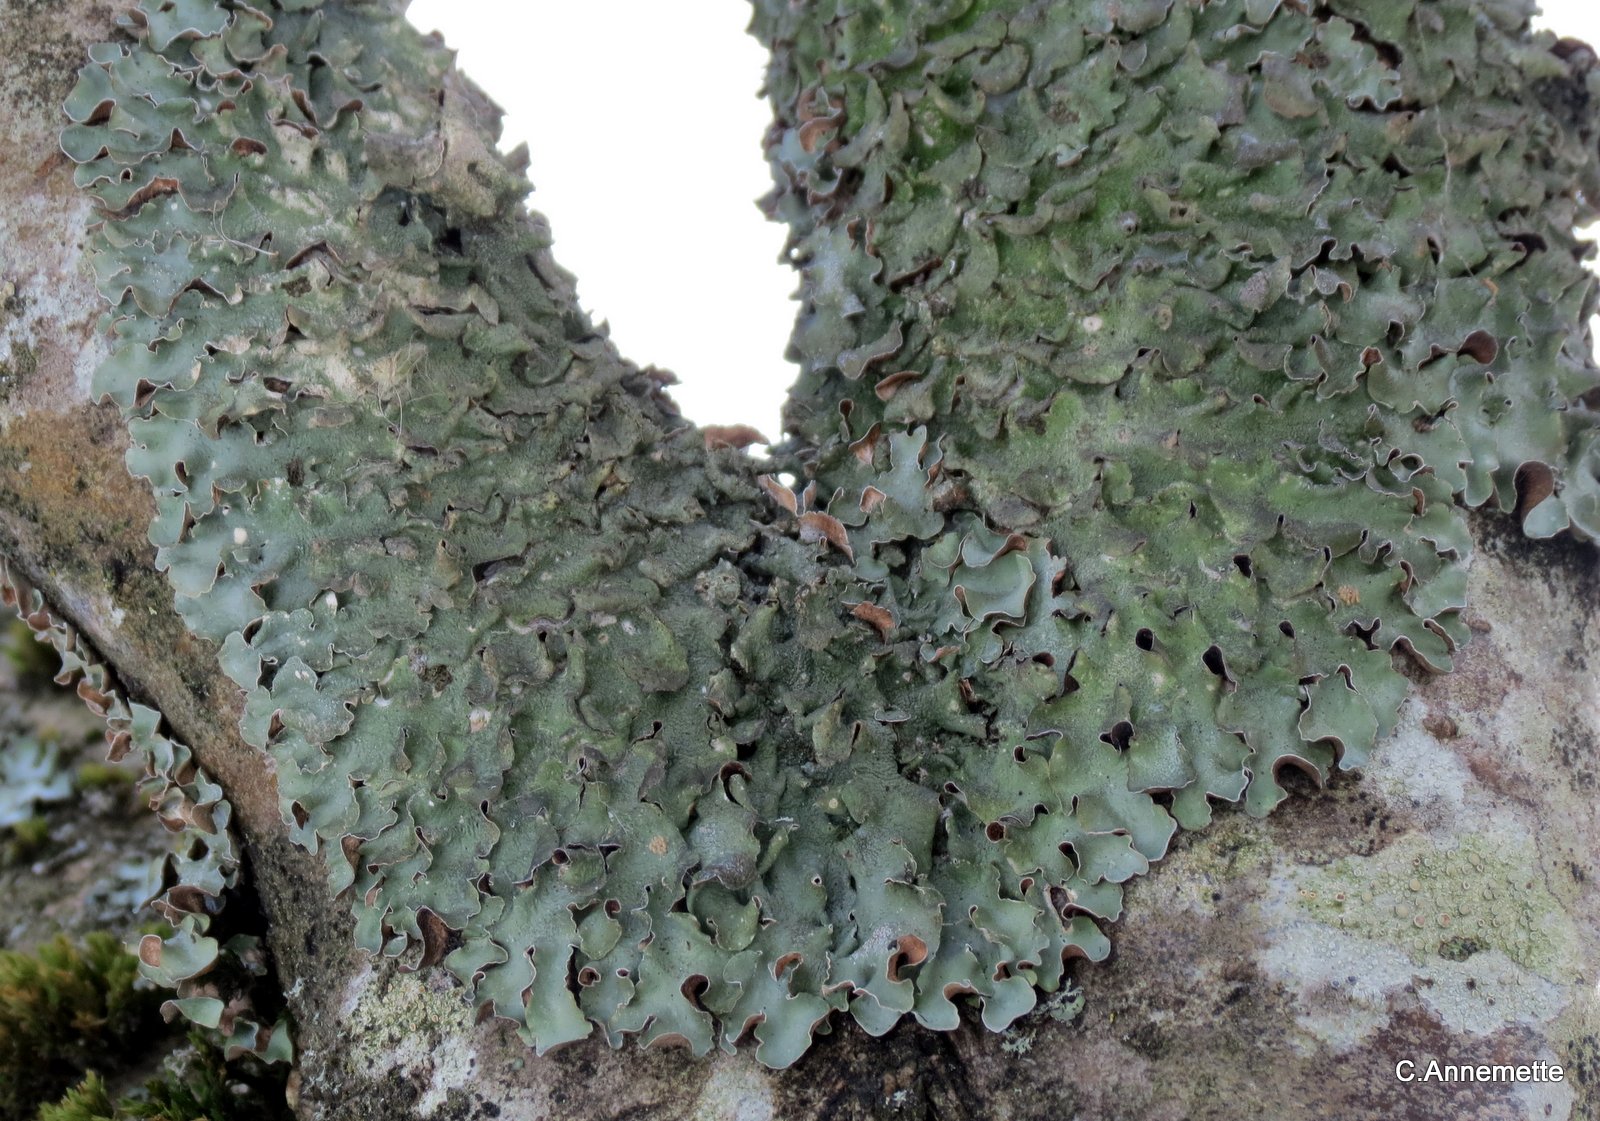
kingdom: Fungi
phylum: Ascomycota
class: Lecanoromycetes
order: Lecanorales
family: Parmeliaceae
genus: Pleurosticta
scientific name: Pleurosticta acetabulum
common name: stor skållav
